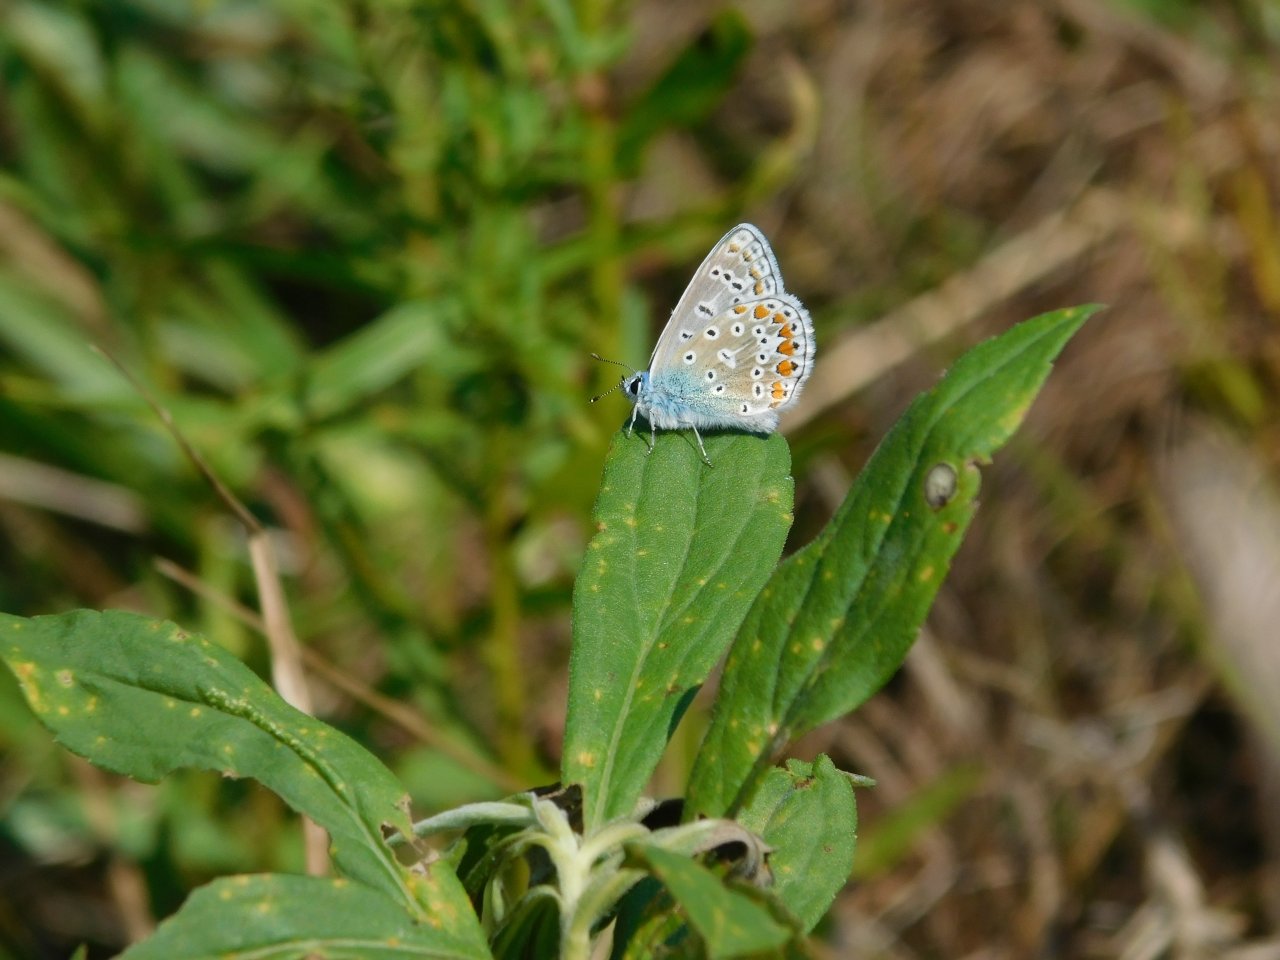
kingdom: Animalia
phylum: Arthropoda
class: Insecta
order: Lepidoptera
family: Lycaenidae
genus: Polyommatus
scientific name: Polyommatus icarus
